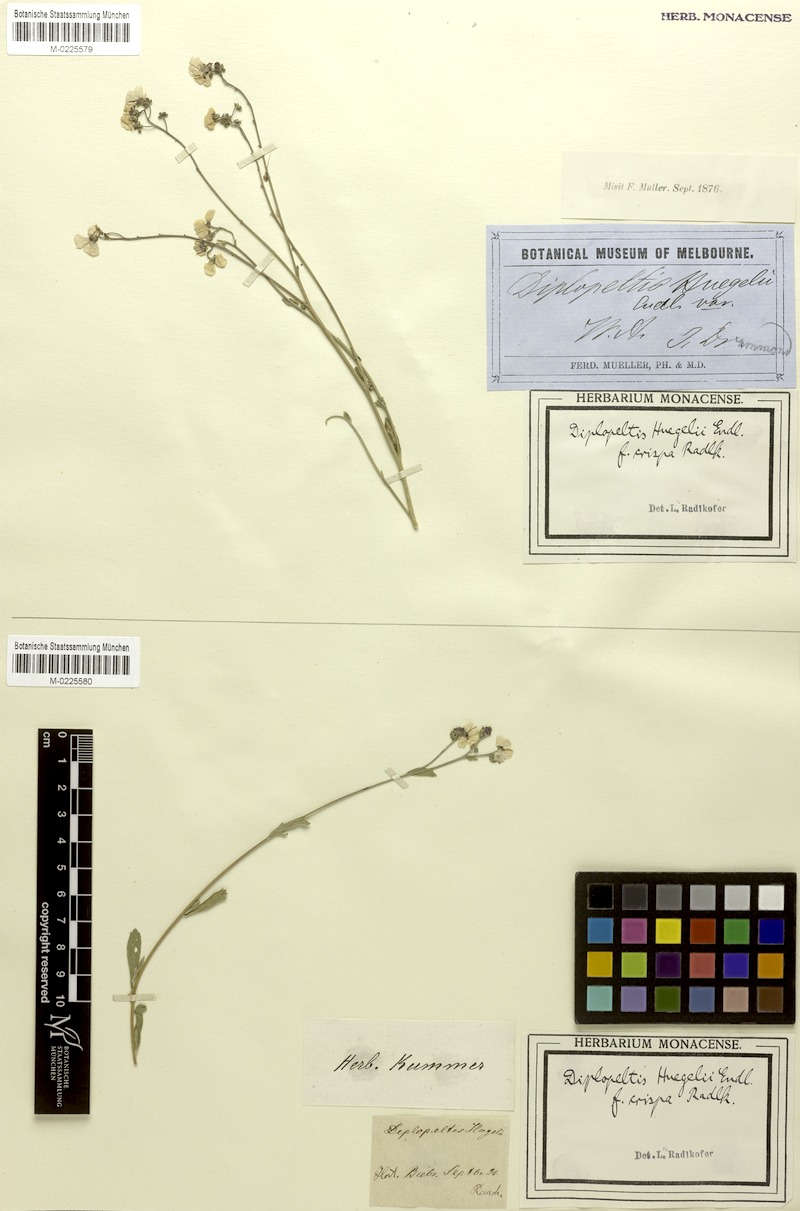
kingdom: Plantae
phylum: Tracheophyta
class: Magnoliopsida
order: Sapindales
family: Sapindaceae
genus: Diplopeltis
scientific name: Diplopeltis huegelii
